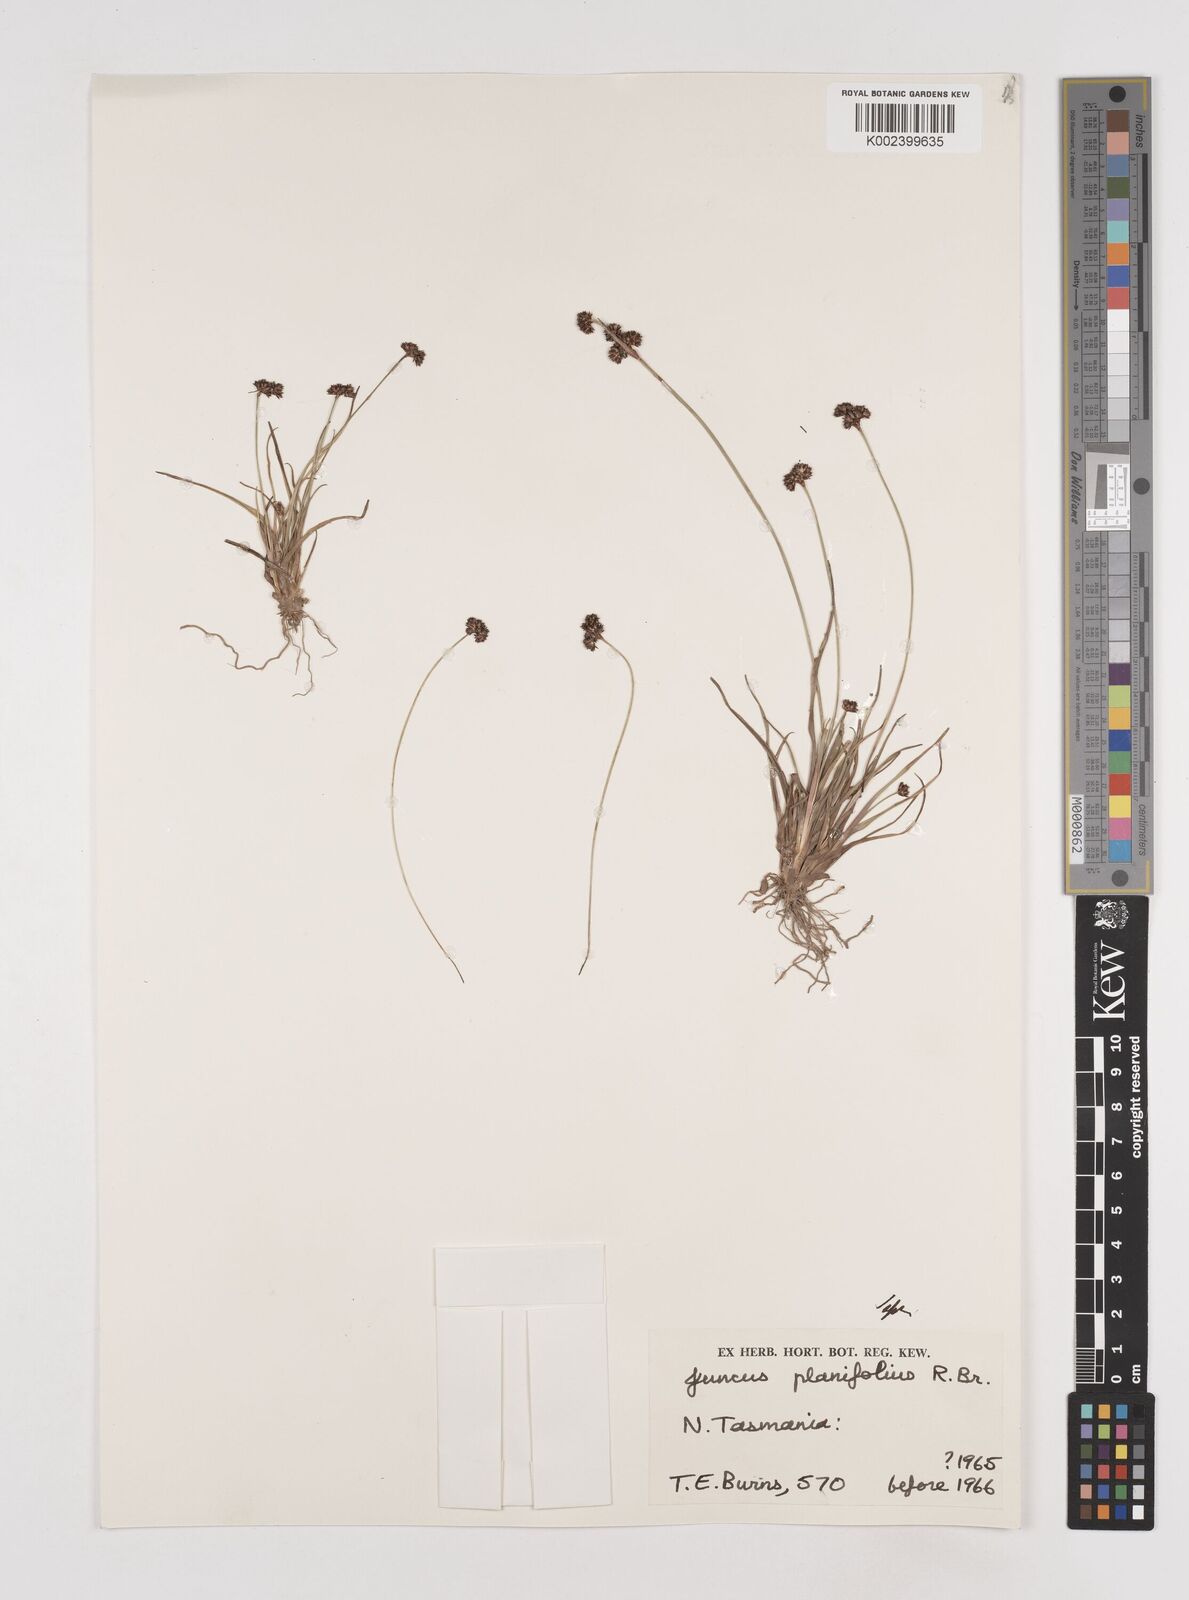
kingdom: Plantae
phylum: Tracheophyta
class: Liliopsida
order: Poales
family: Juncaceae
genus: Juncus
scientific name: Juncus planifolius
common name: Broadleaf rush
